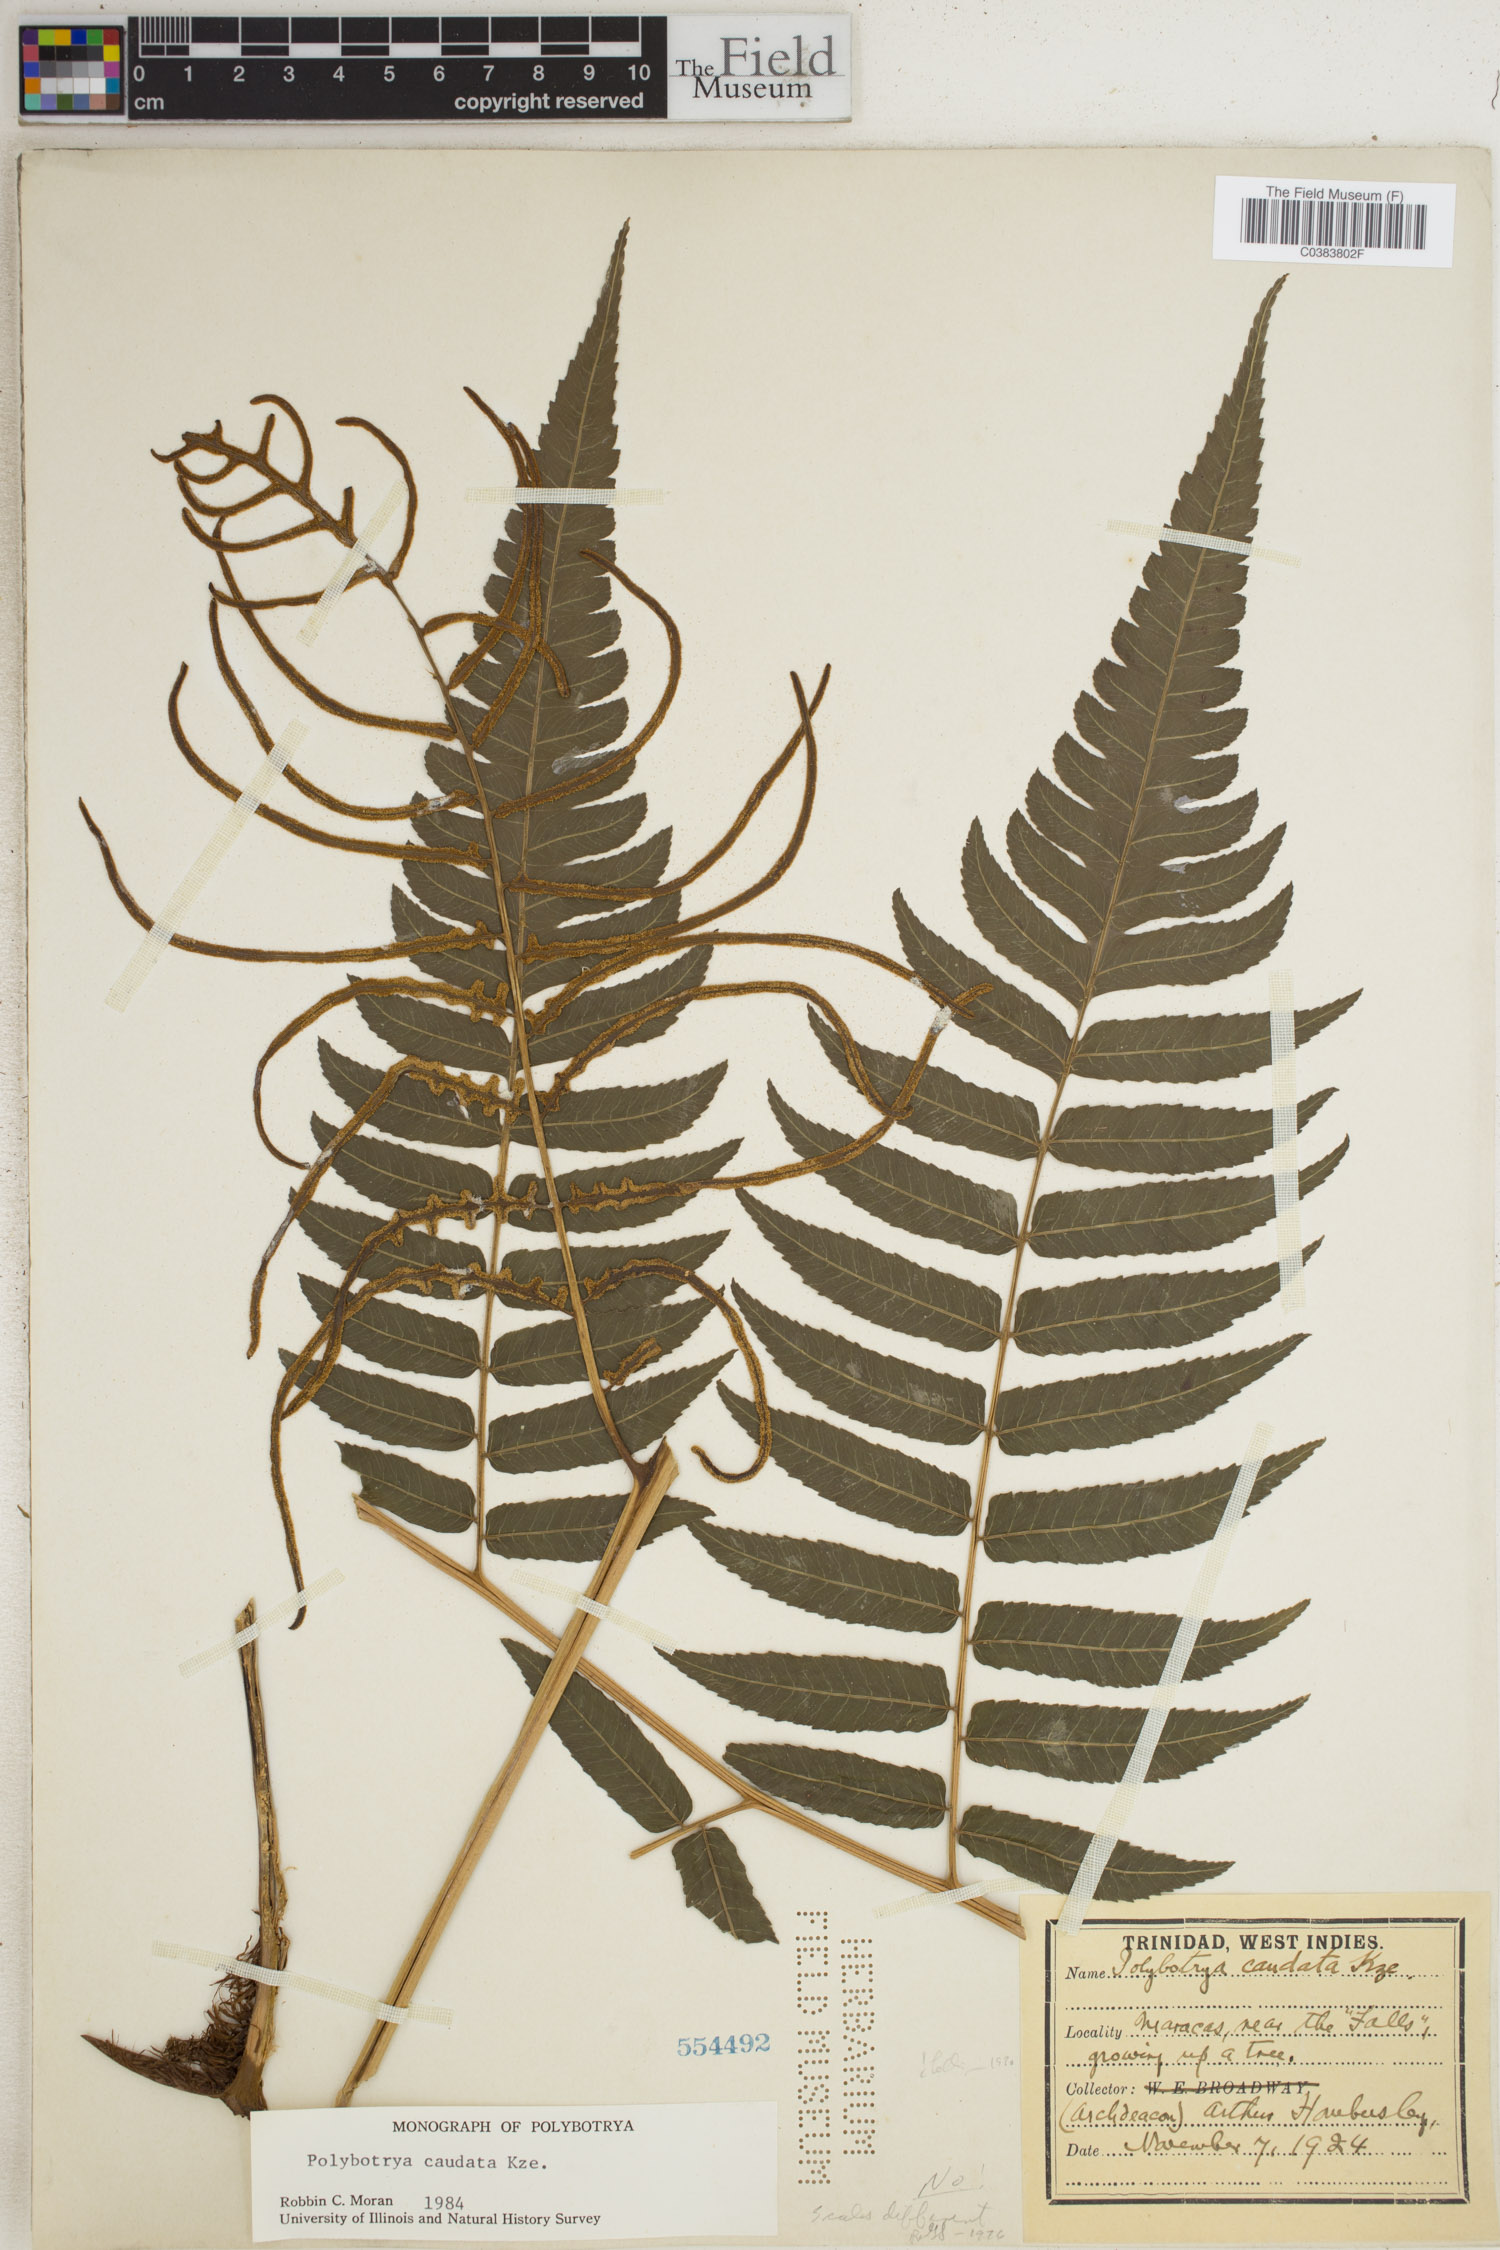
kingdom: Plantae
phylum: Tracheophyta
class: Polypodiopsida
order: Polypodiales
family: Dryopteridaceae
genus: Polybotrya
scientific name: Polybotrya caudata
